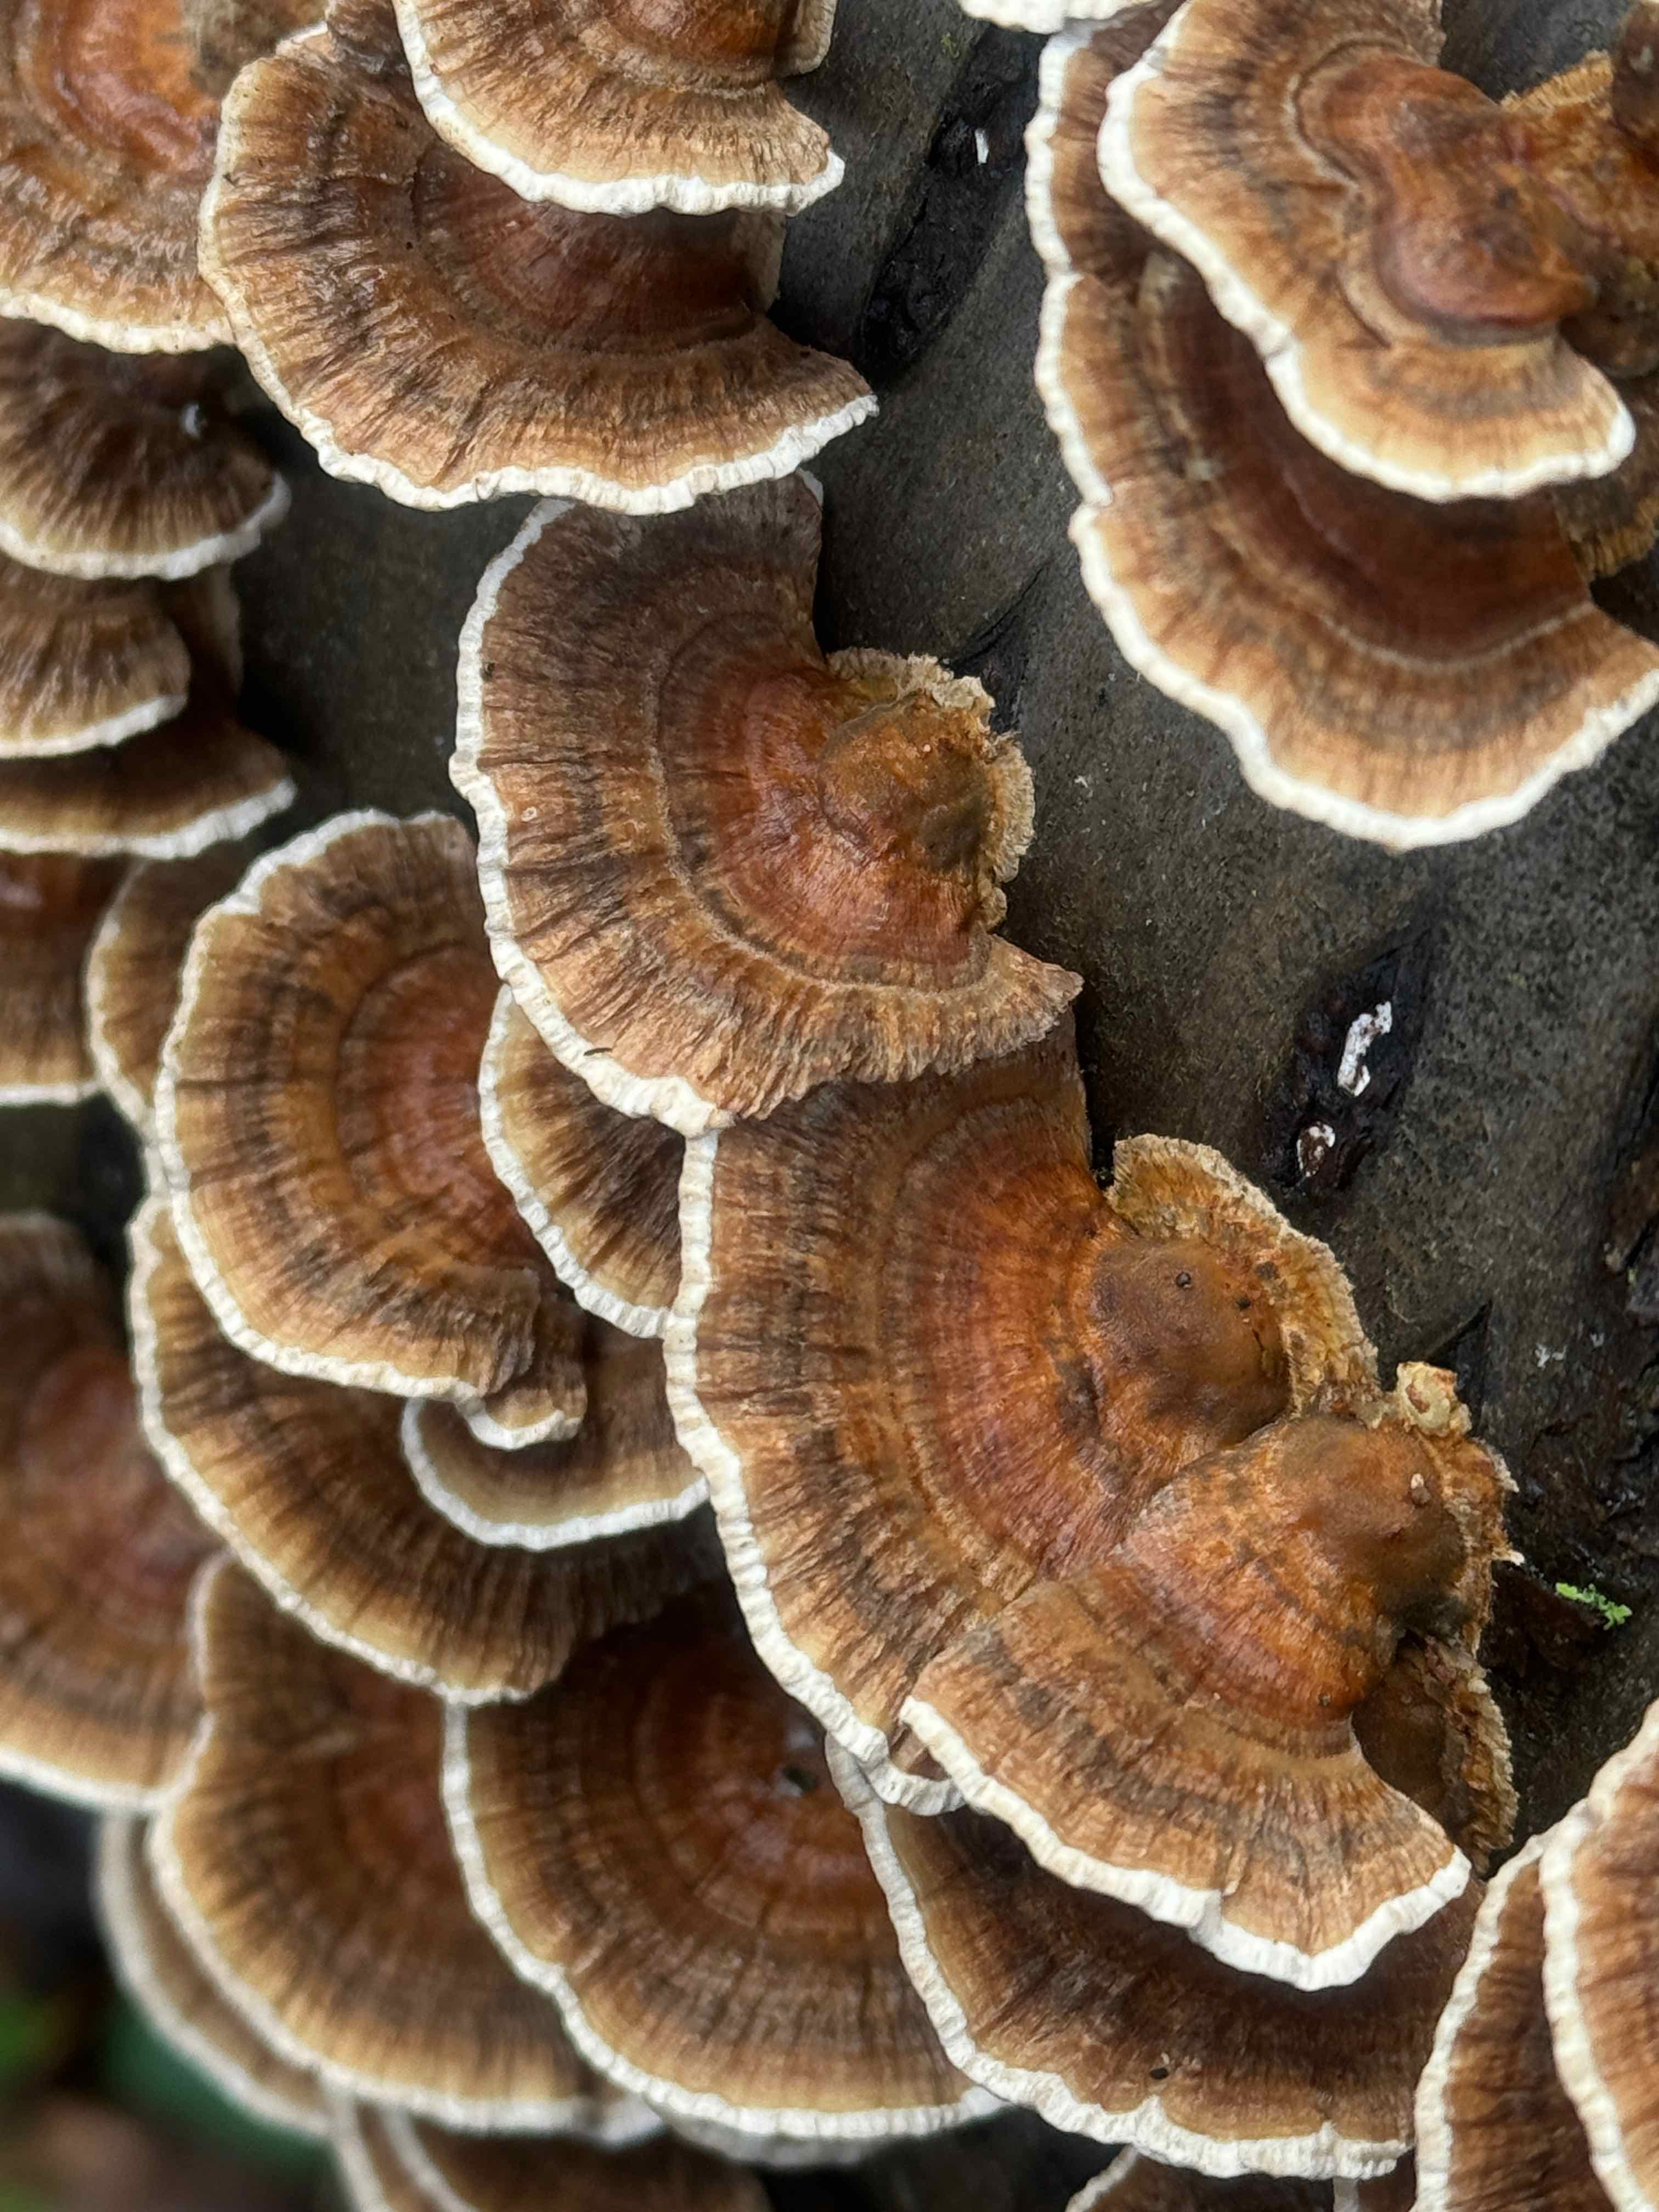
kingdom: Fungi
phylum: Basidiomycota
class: Agaricomycetes
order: Polyporales
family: Polyporaceae
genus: Trametes
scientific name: Trametes ochracea
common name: bæltet læderporesvamp
